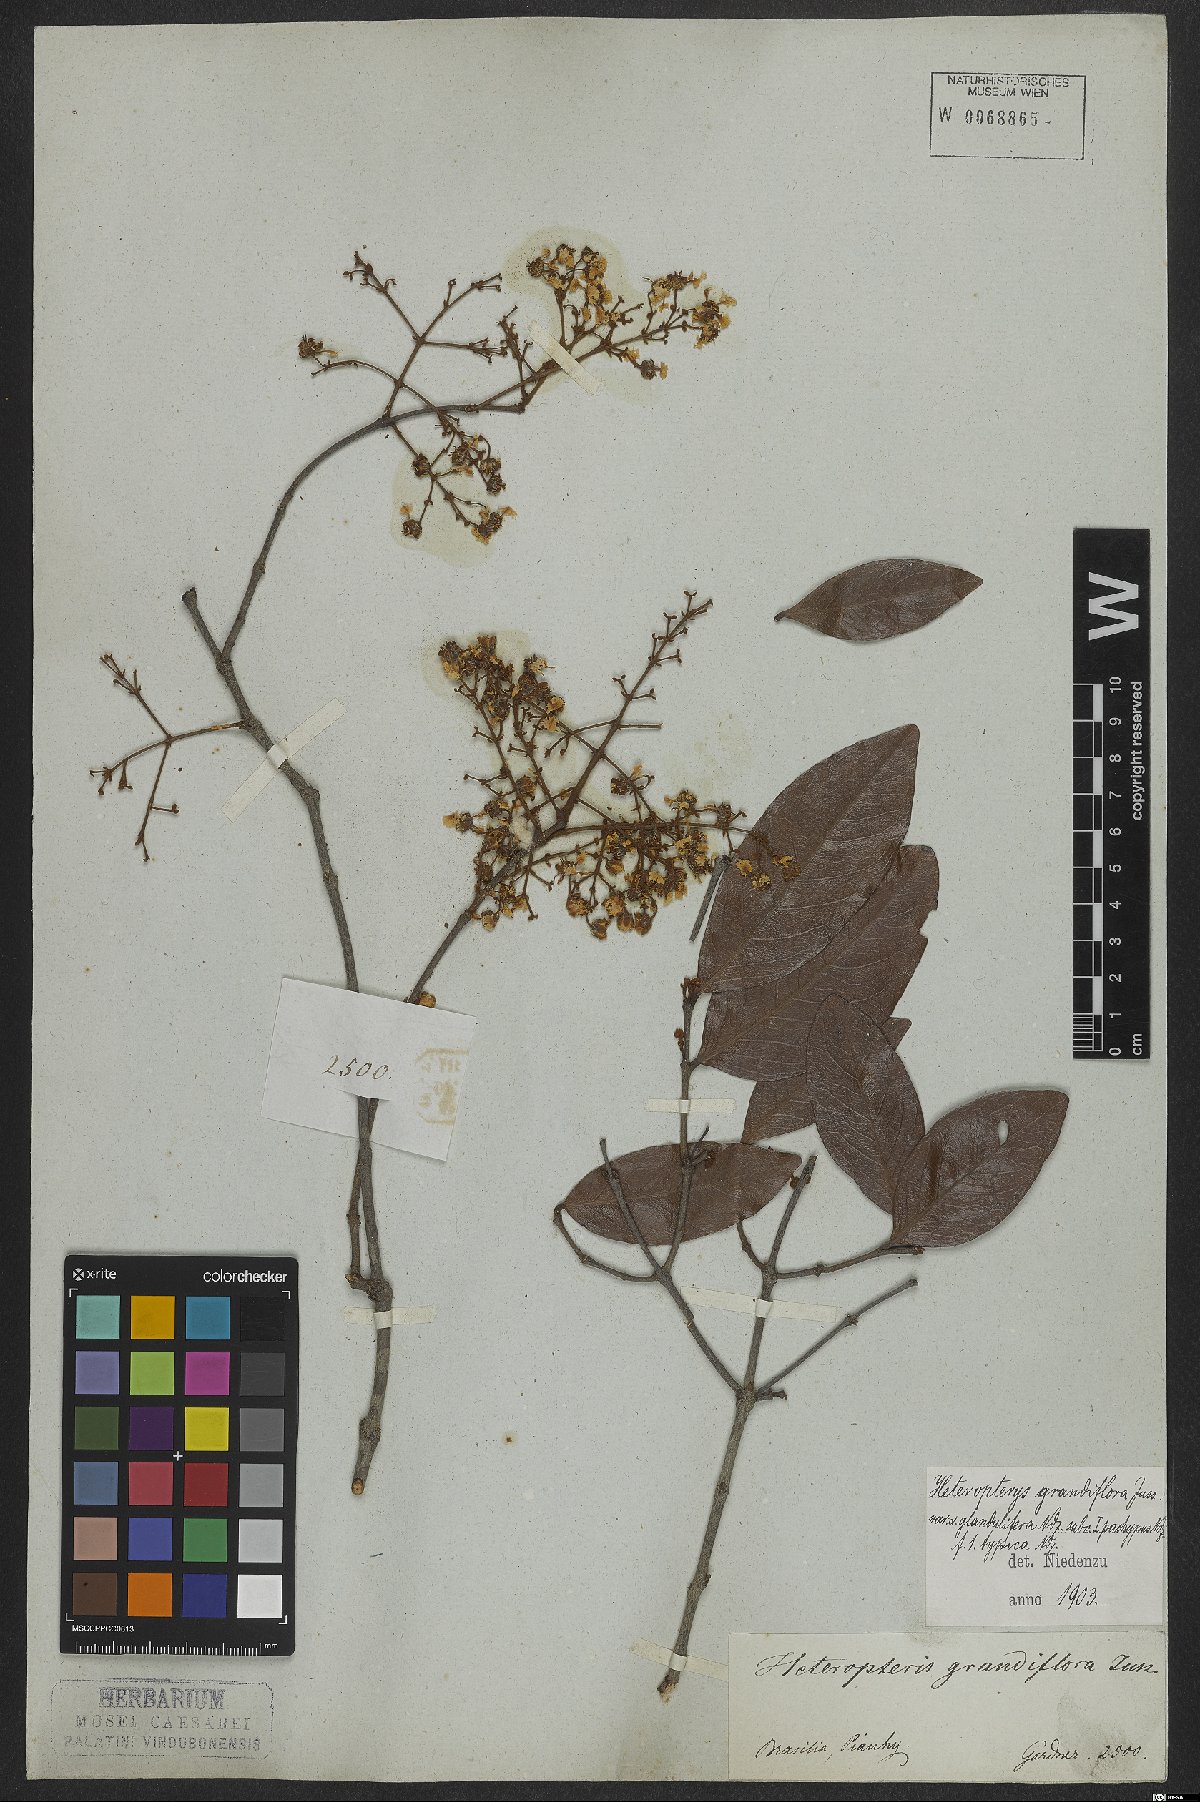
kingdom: Plantae
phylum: Tracheophyta
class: Magnoliopsida
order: Malpighiales
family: Malpighiaceae
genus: Heteropterys
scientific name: Heteropterys grandiflora
